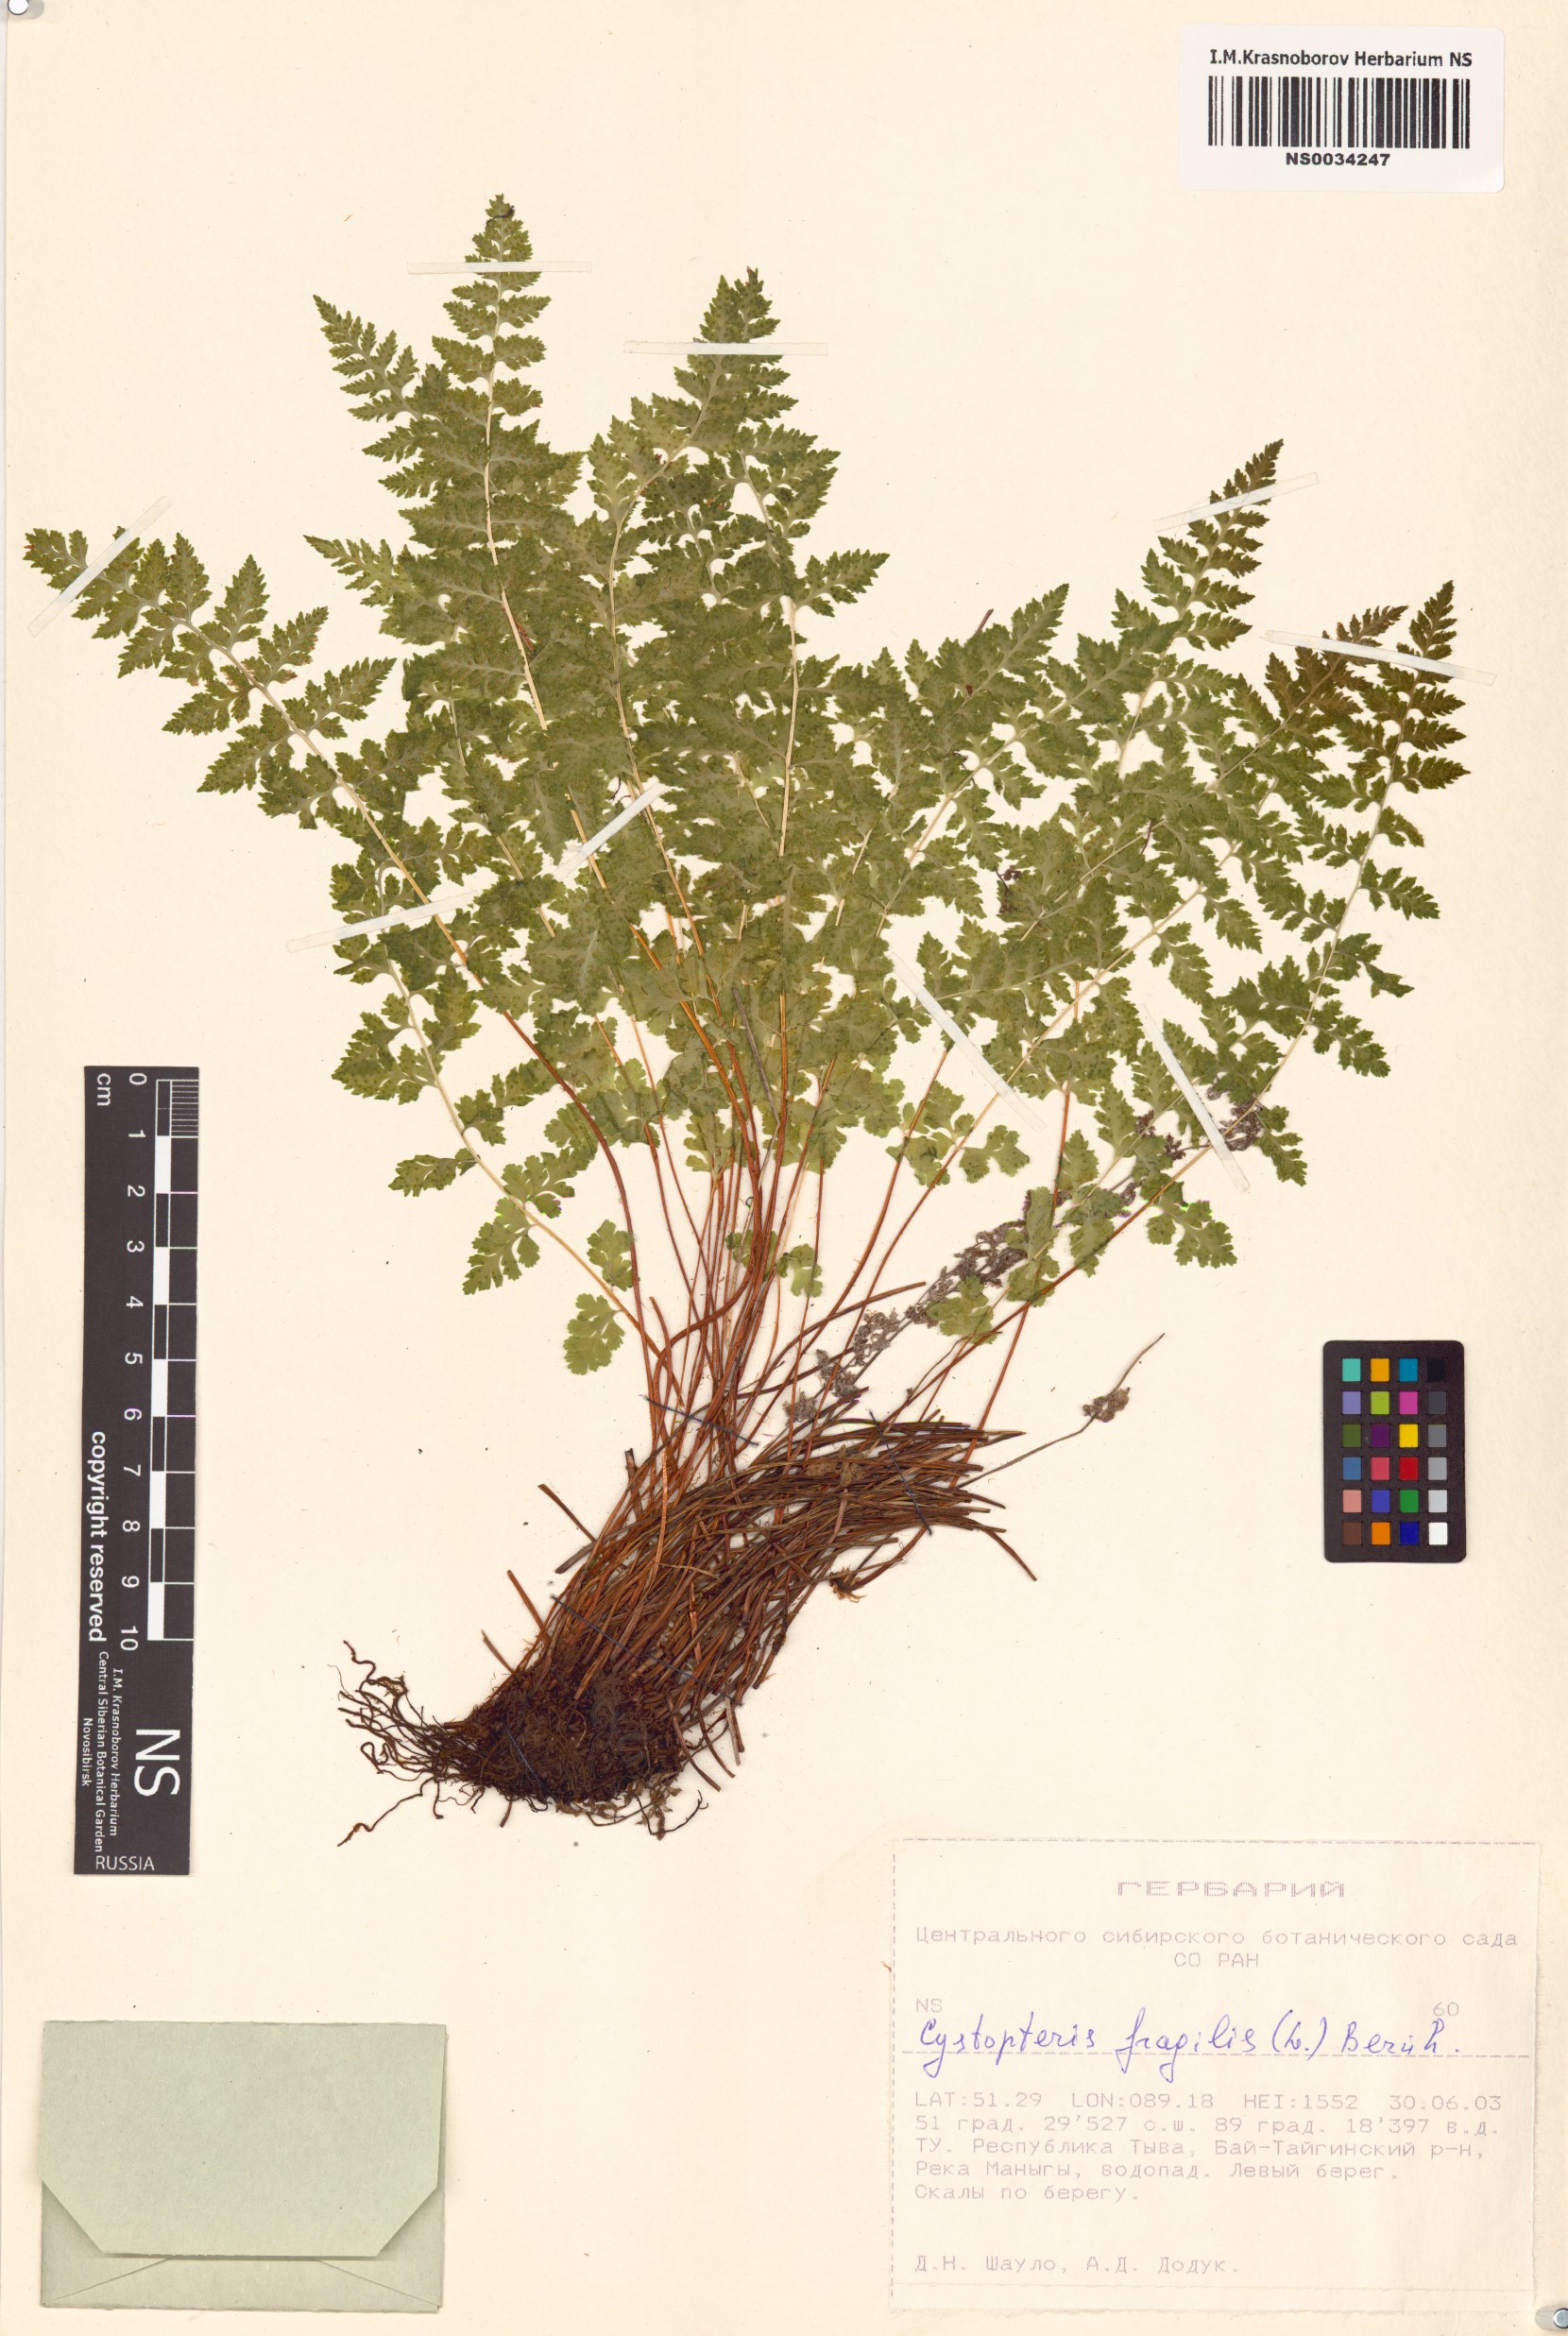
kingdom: Plantae
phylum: Tracheophyta
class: Polypodiopsida
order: Polypodiales
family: Cystopteridaceae
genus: Cystopteris
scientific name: Cystopteris fragilis
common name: Brittle bladder fern
